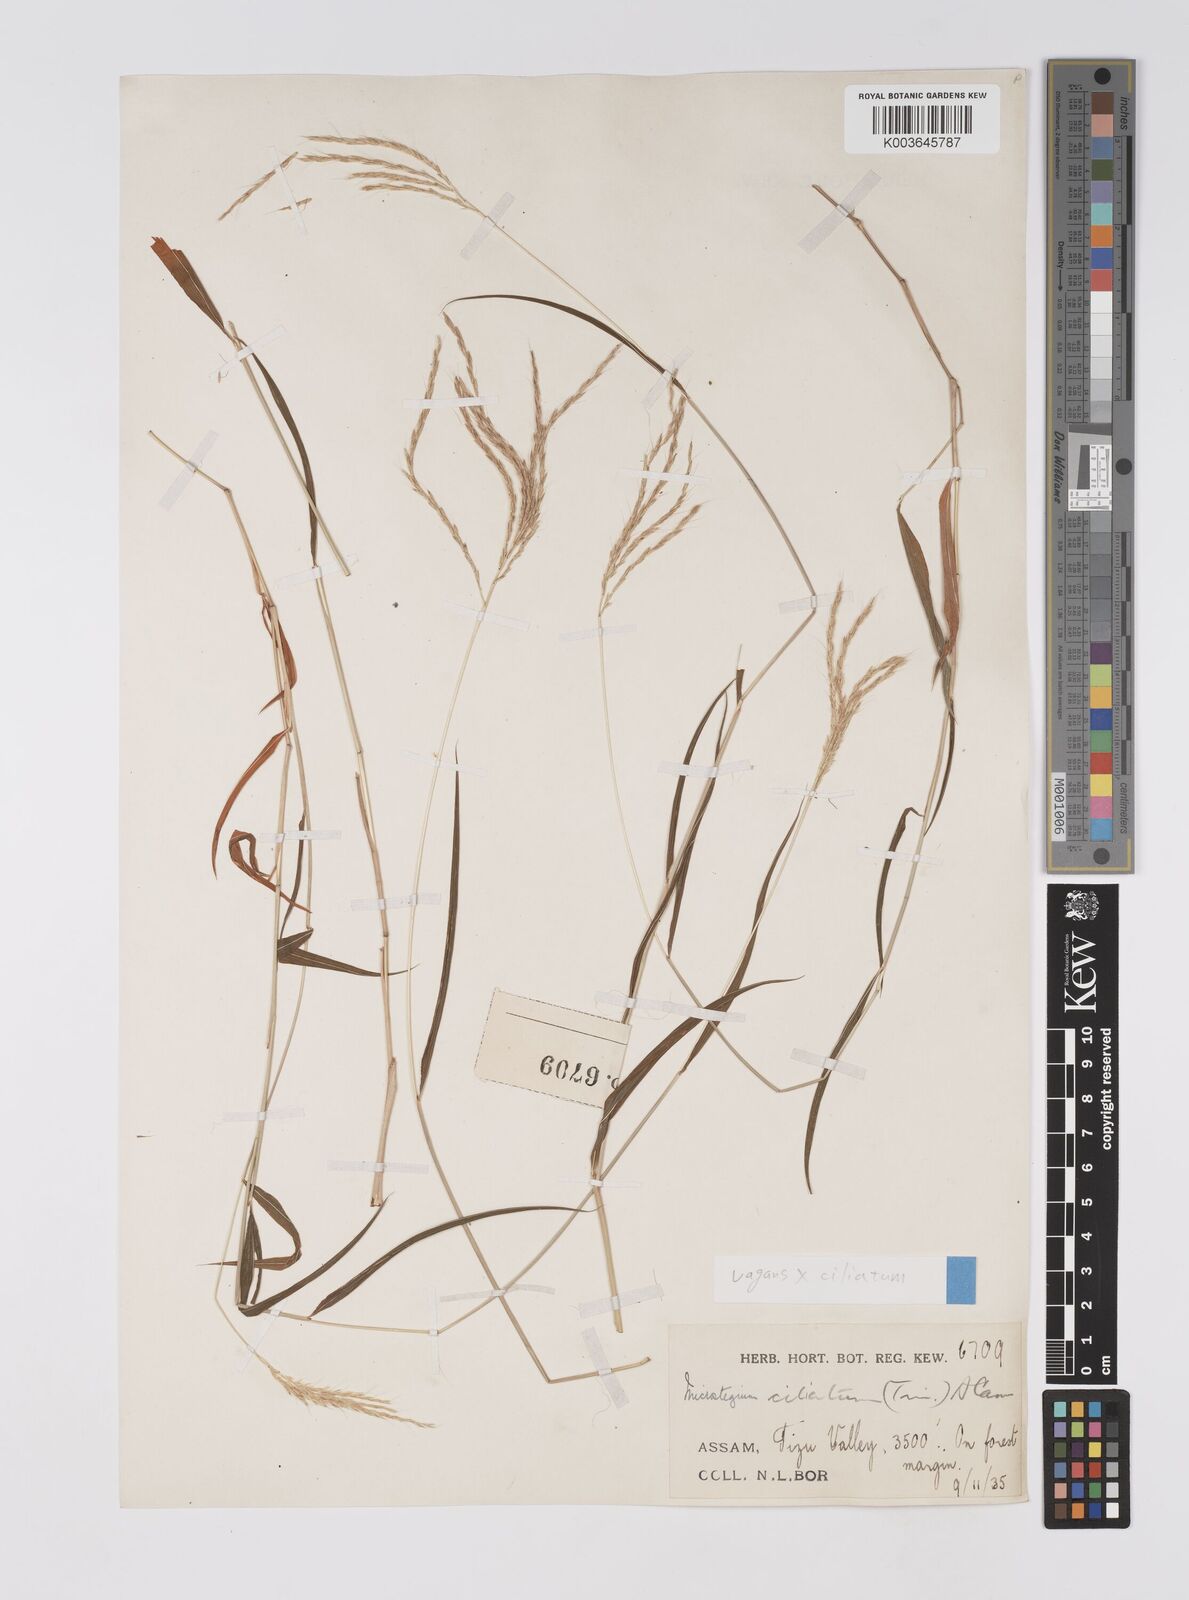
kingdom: Plantae
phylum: Tracheophyta
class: Liliopsida
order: Poales
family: Poaceae
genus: Microstegium
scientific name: Microstegium fasciculatum
